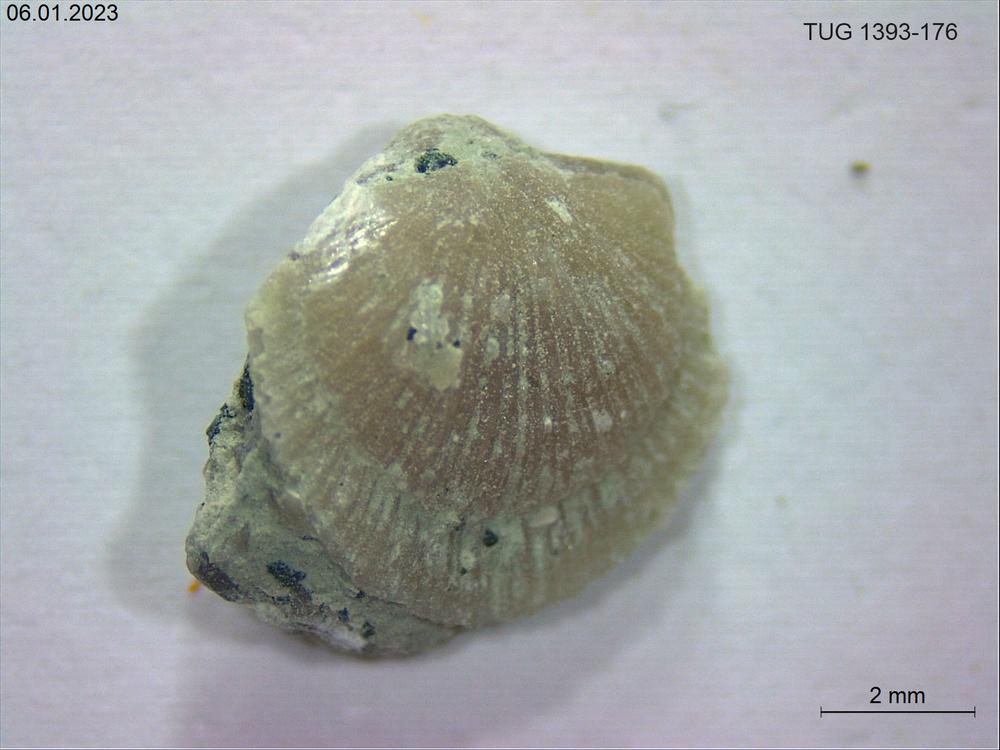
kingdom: Animalia
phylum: Brachiopoda
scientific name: Brachiopoda
